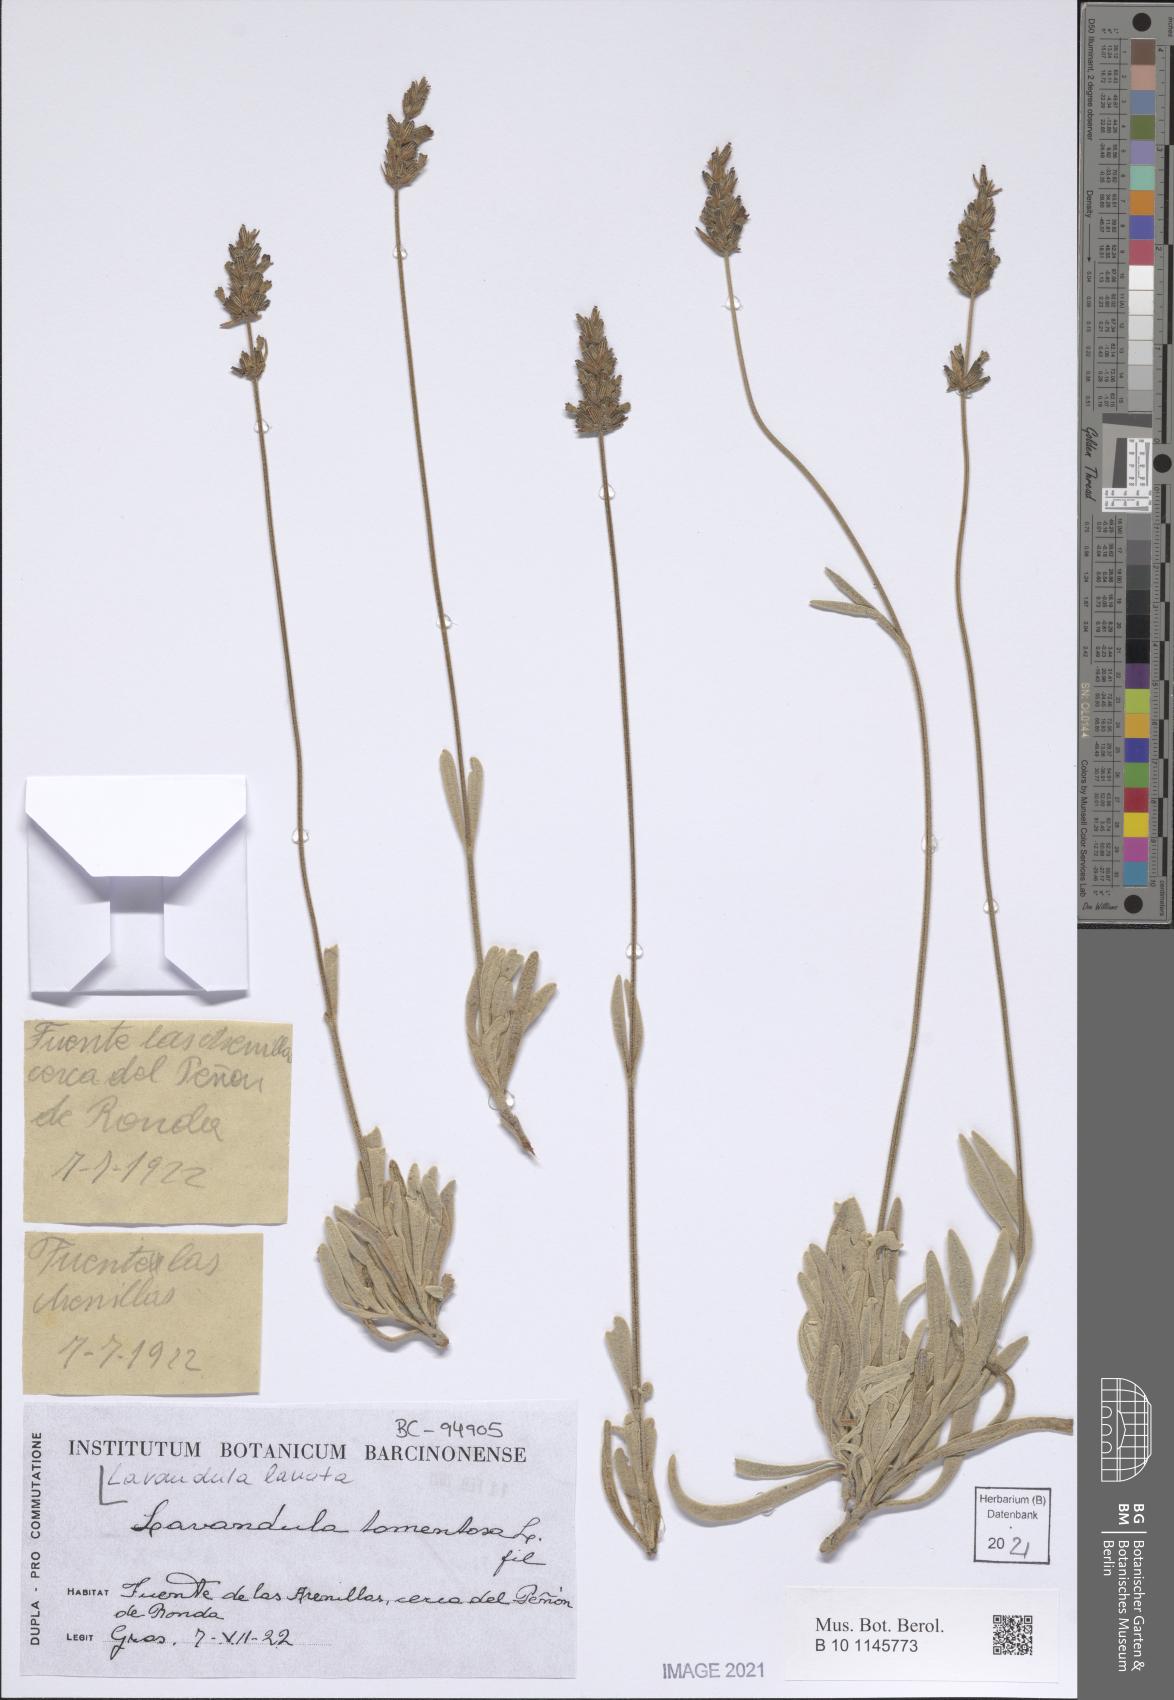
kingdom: Plantae
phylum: Tracheophyta
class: Magnoliopsida
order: Lamiales
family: Lamiaceae
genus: Lavandula
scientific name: Lavandula lanata
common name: Woolly lavender
